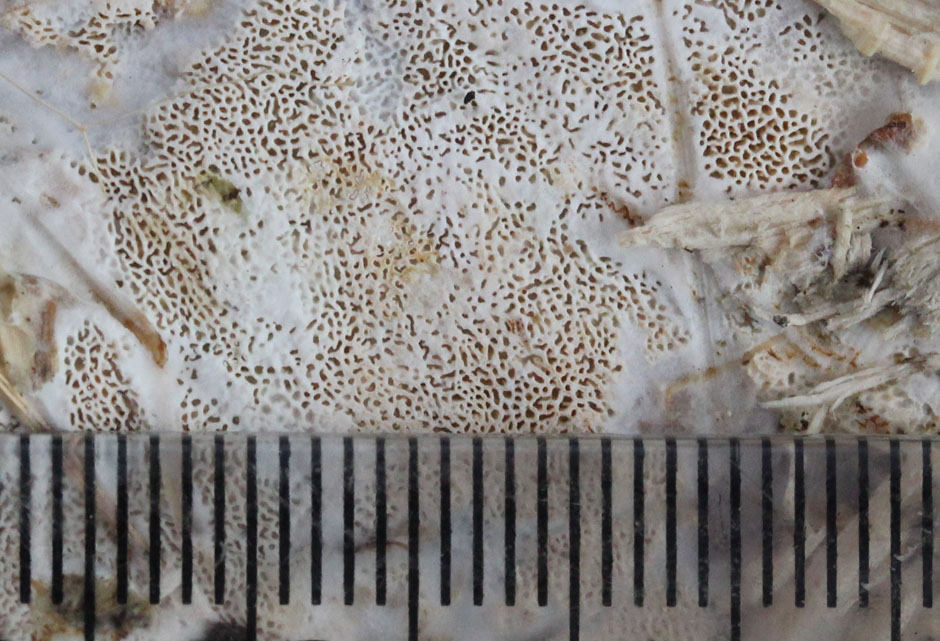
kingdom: Fungi
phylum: Basidiomycota
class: Agaricomycetes
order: Hymenochaetales
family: Schizoporaceae
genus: Xylodon
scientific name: Xylodon subtropicus
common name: labyrint-tandsvamp
